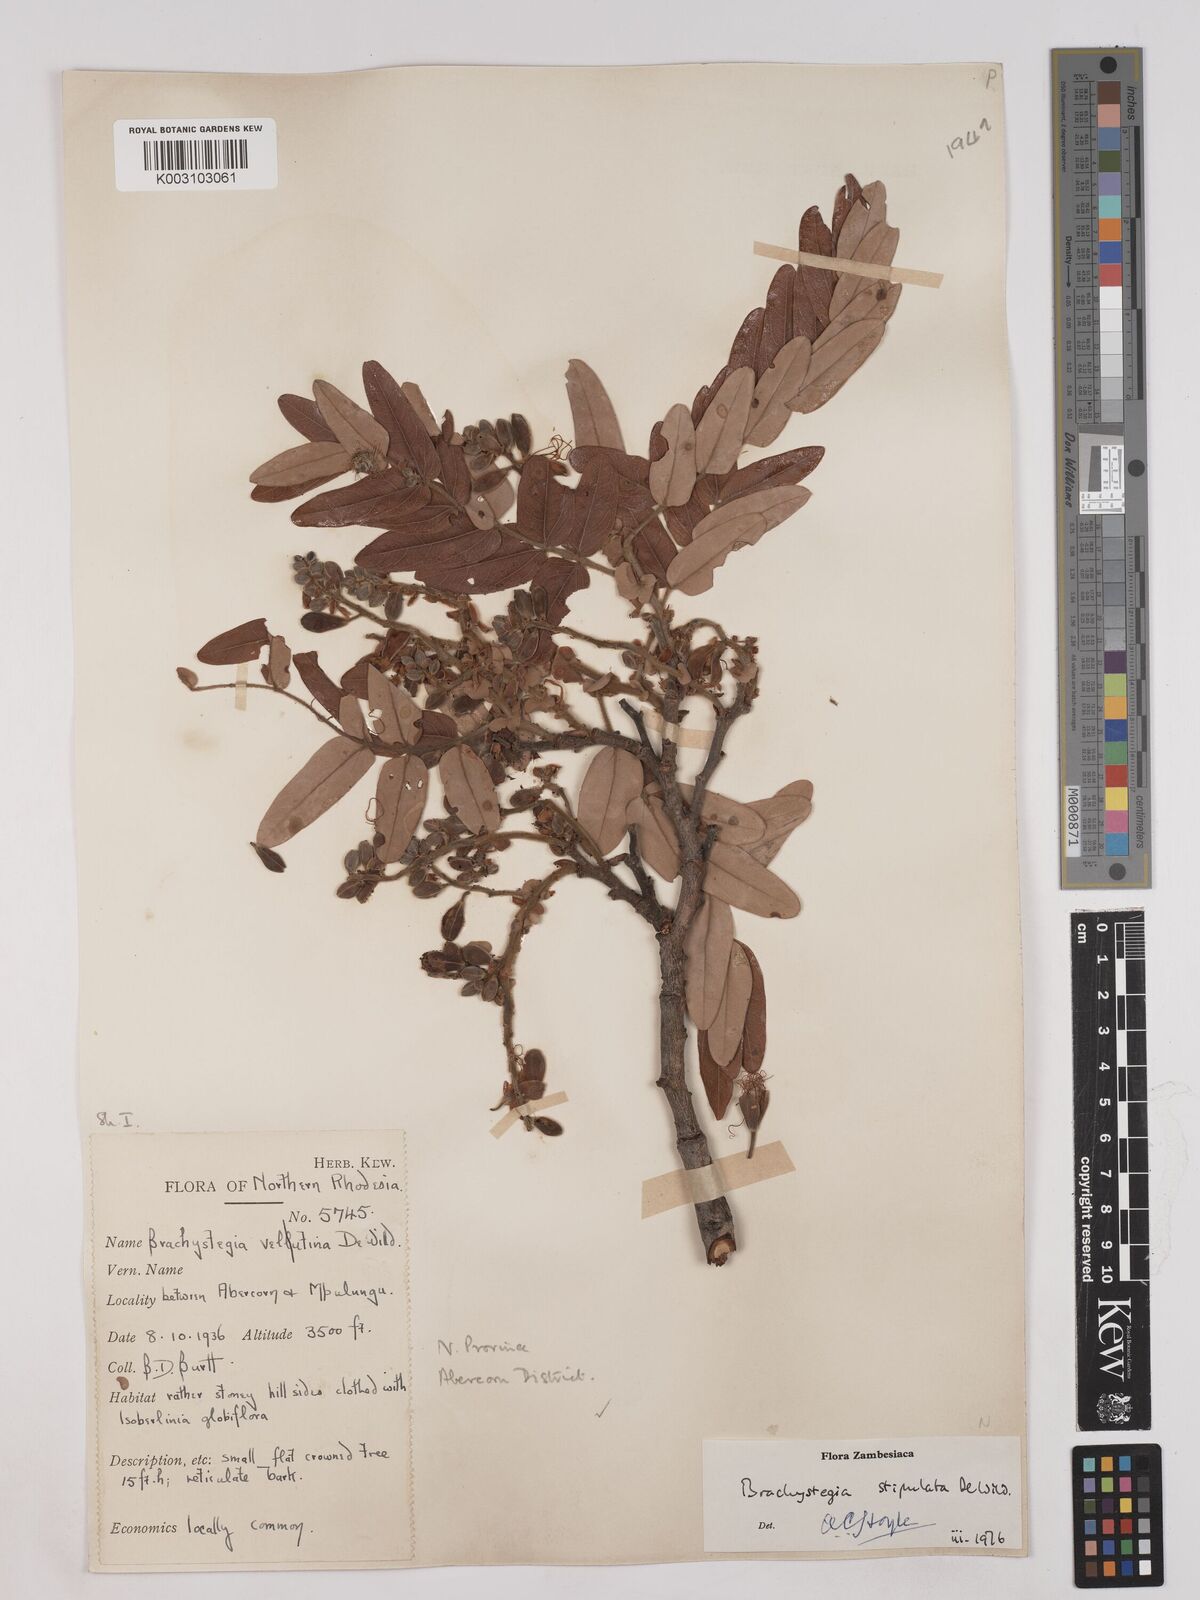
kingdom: Plantae
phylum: Tracheophyta
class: Magnoliopsida
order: Fabales
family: Fabaceae
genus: Brachystegia
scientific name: Brachystegia stipulata
